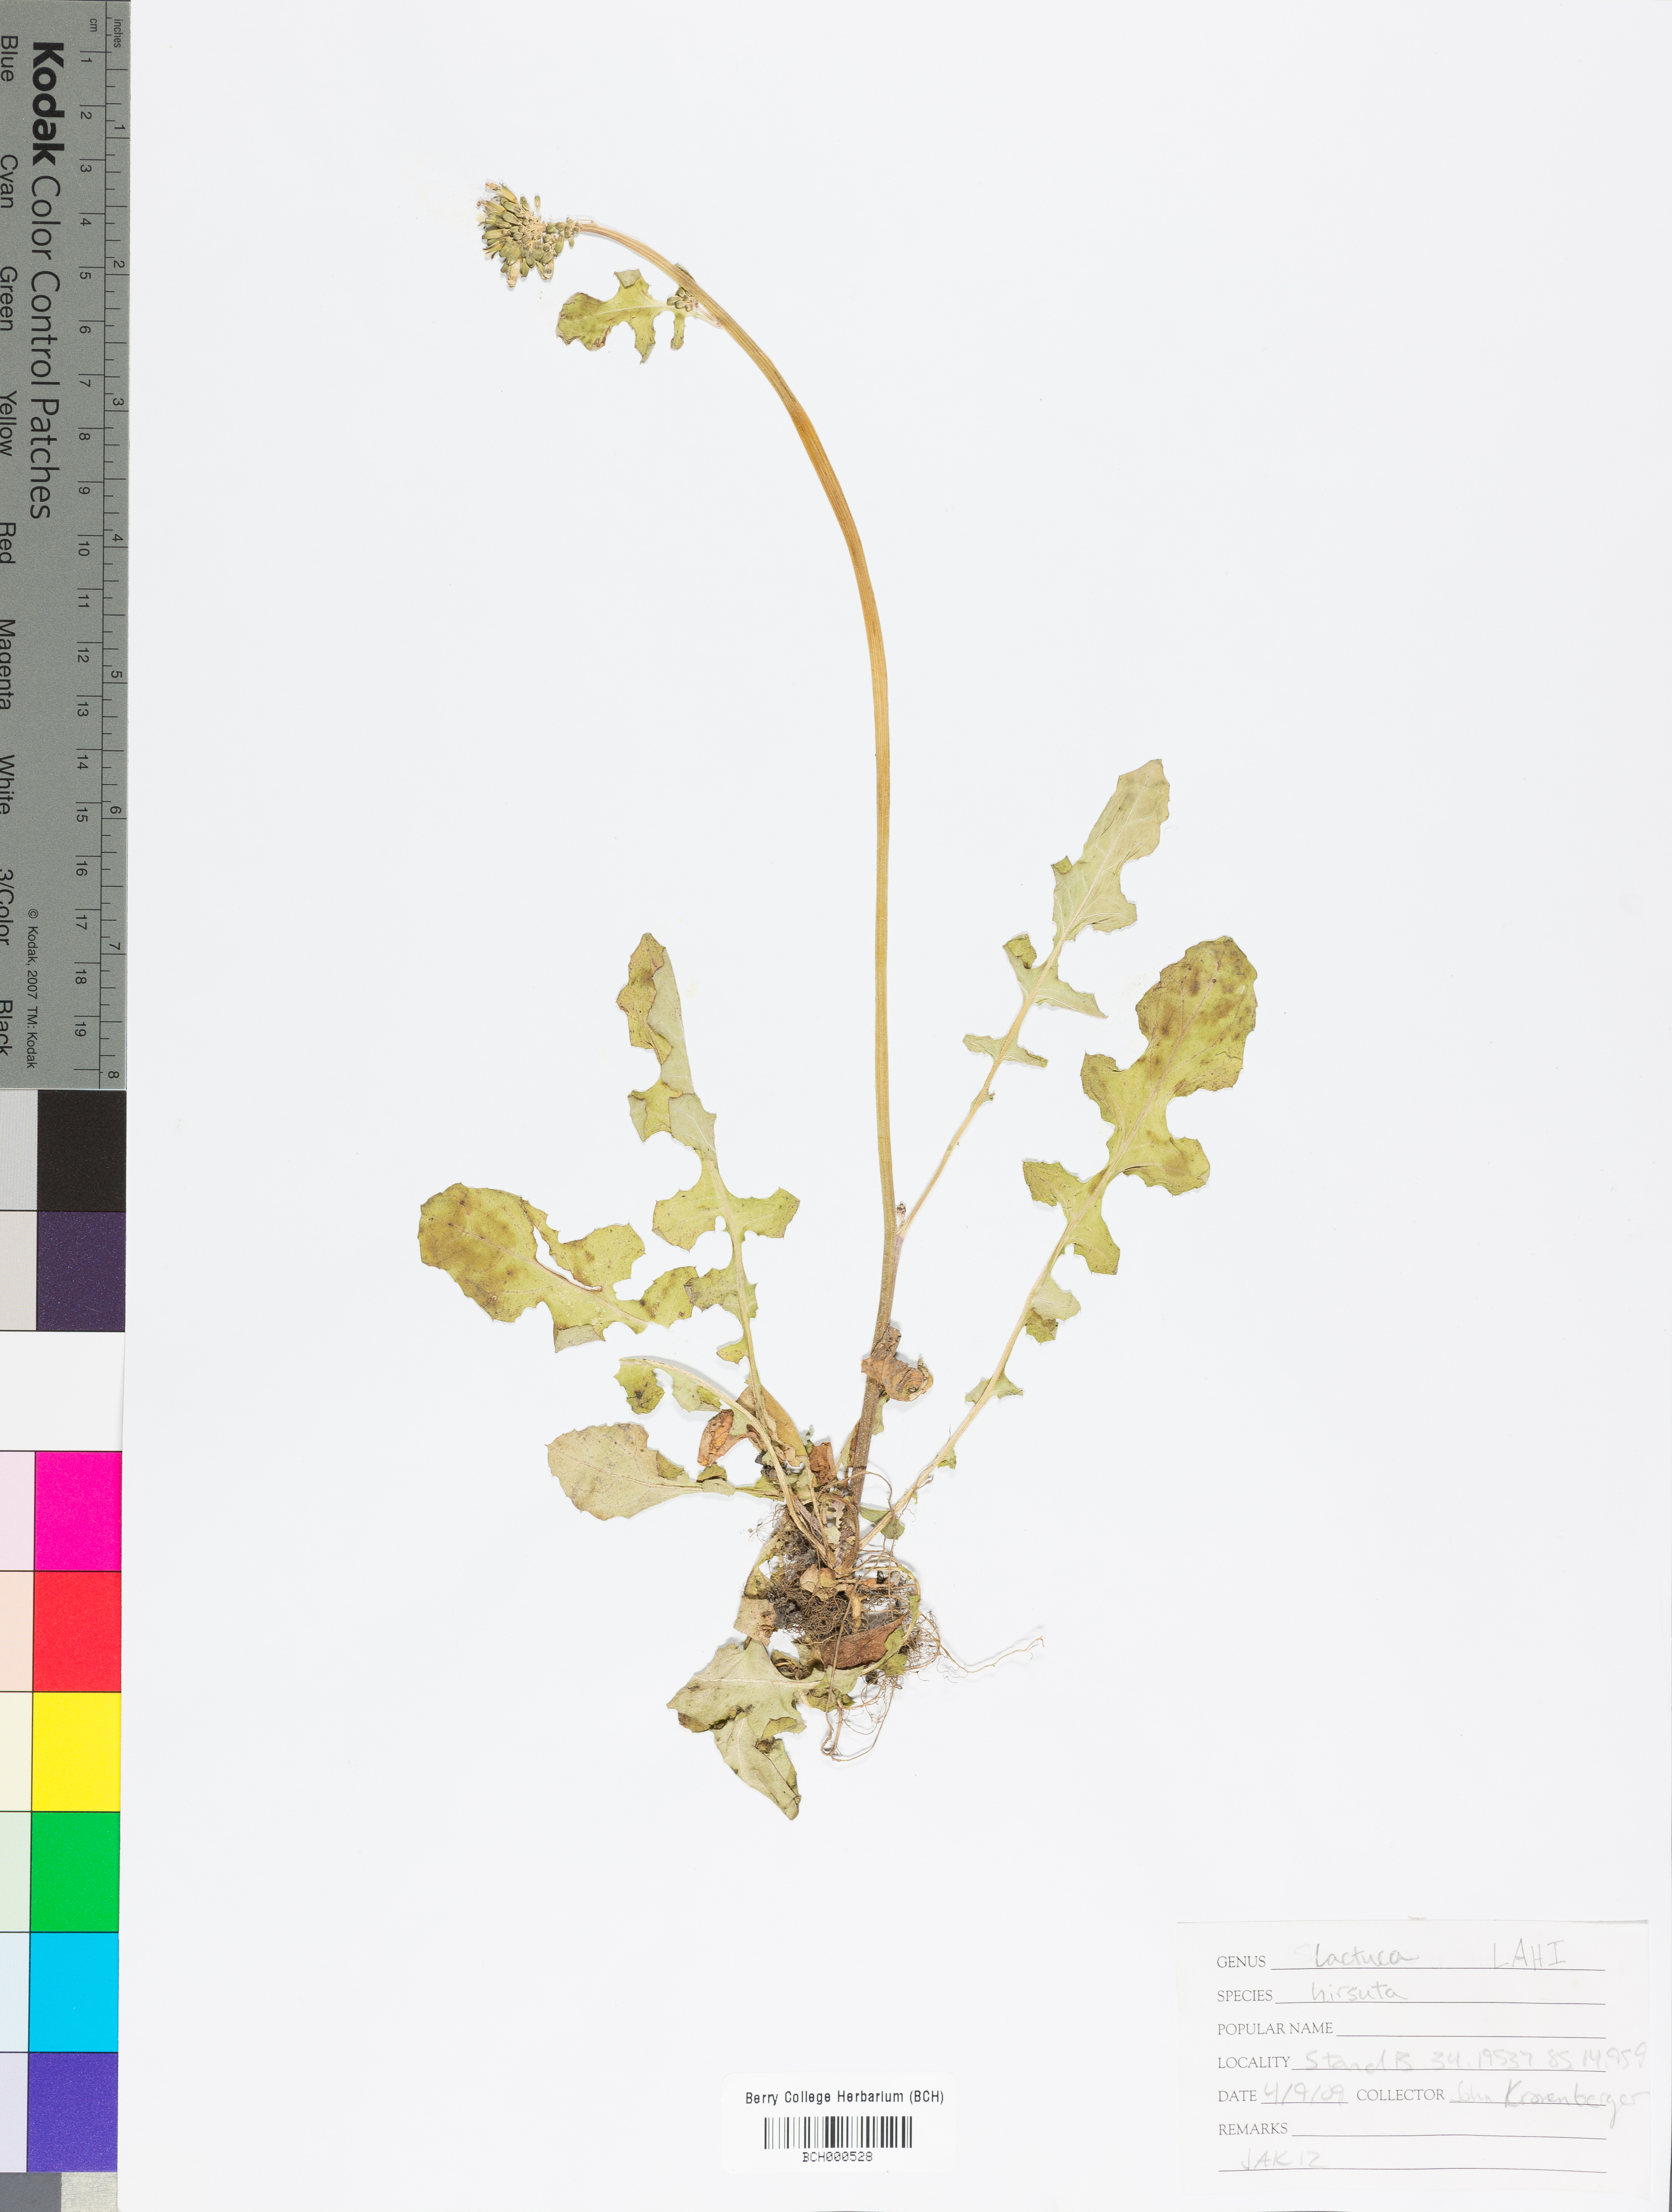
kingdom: Plantae
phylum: Tracheophyta
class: Magnoliopsida
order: Asterales
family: Asteraceae
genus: Lactuca
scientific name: Lactuca hirsuta
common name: Hairy lettuce
